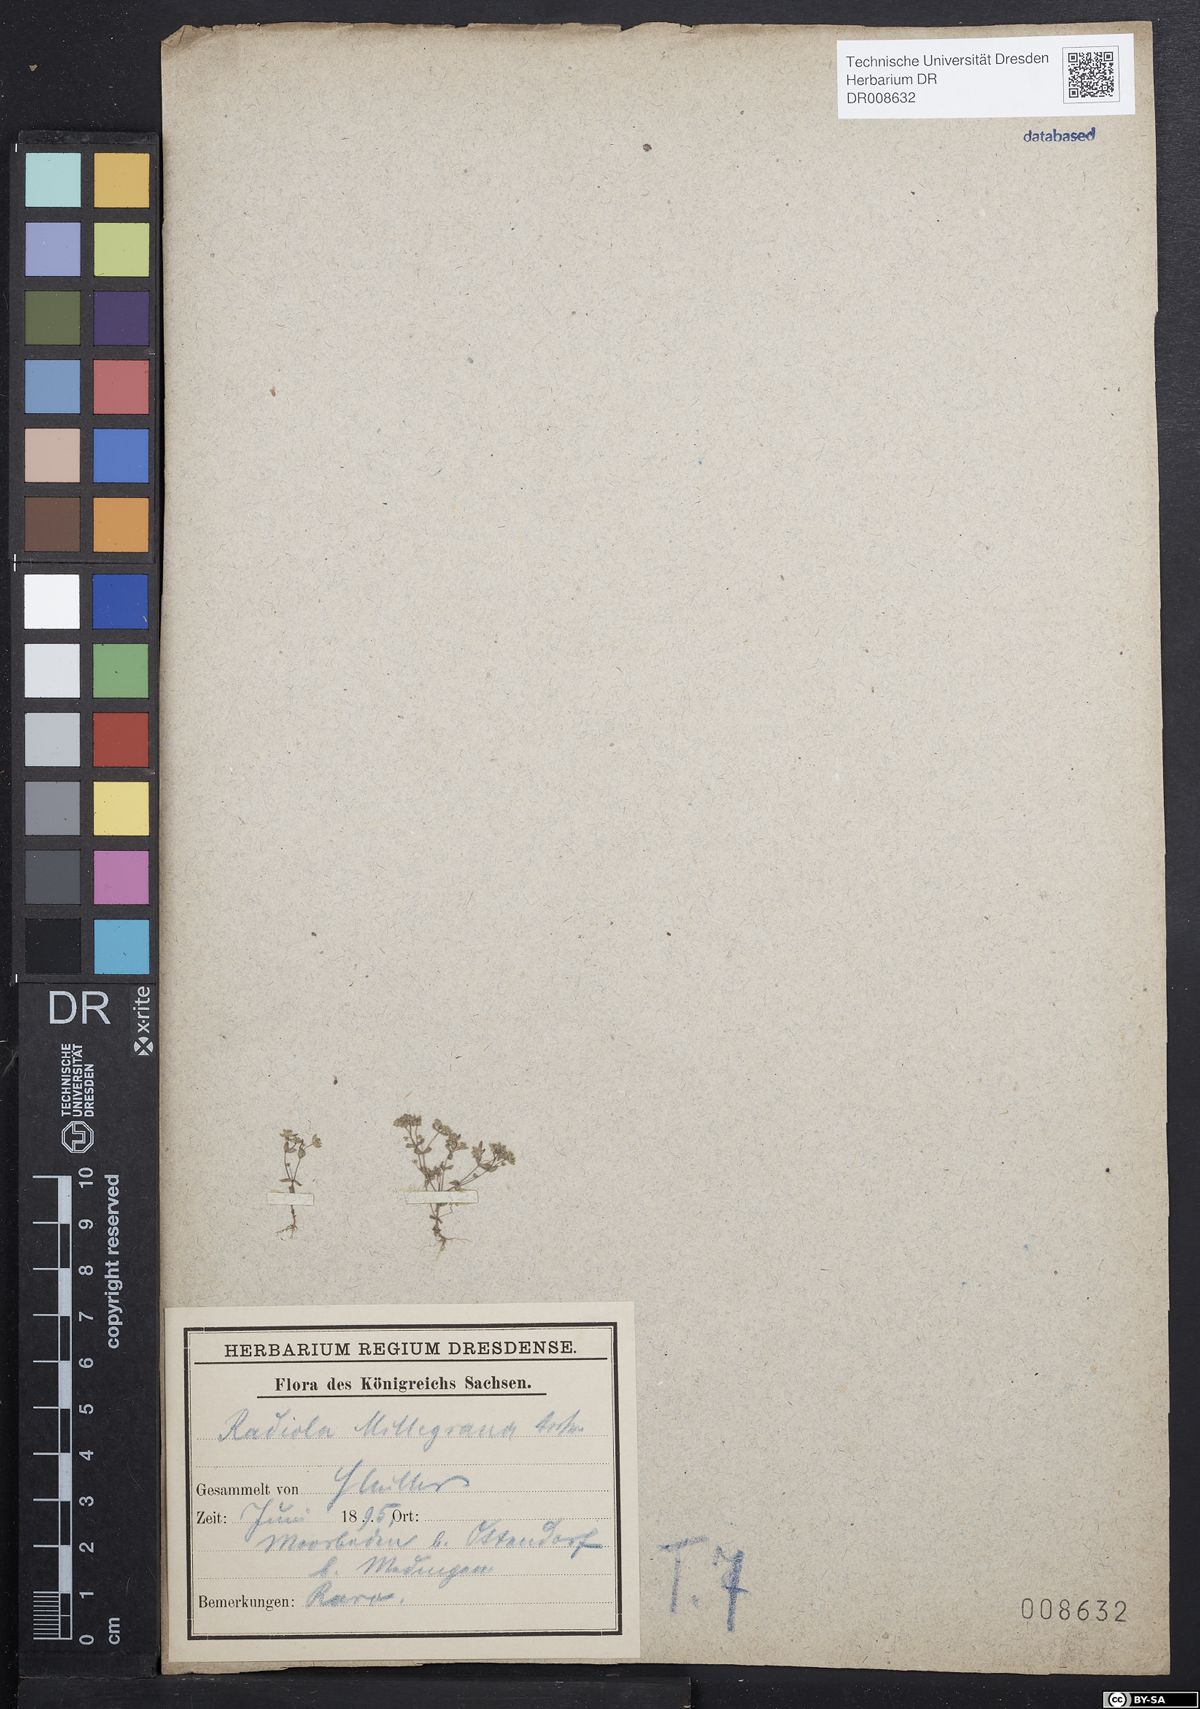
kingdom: Plantae
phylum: Tracheophyta
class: Magnoliopsida
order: Malpighiales
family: Linaceae
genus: Radiola
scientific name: Radiola linoides
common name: Allseed
